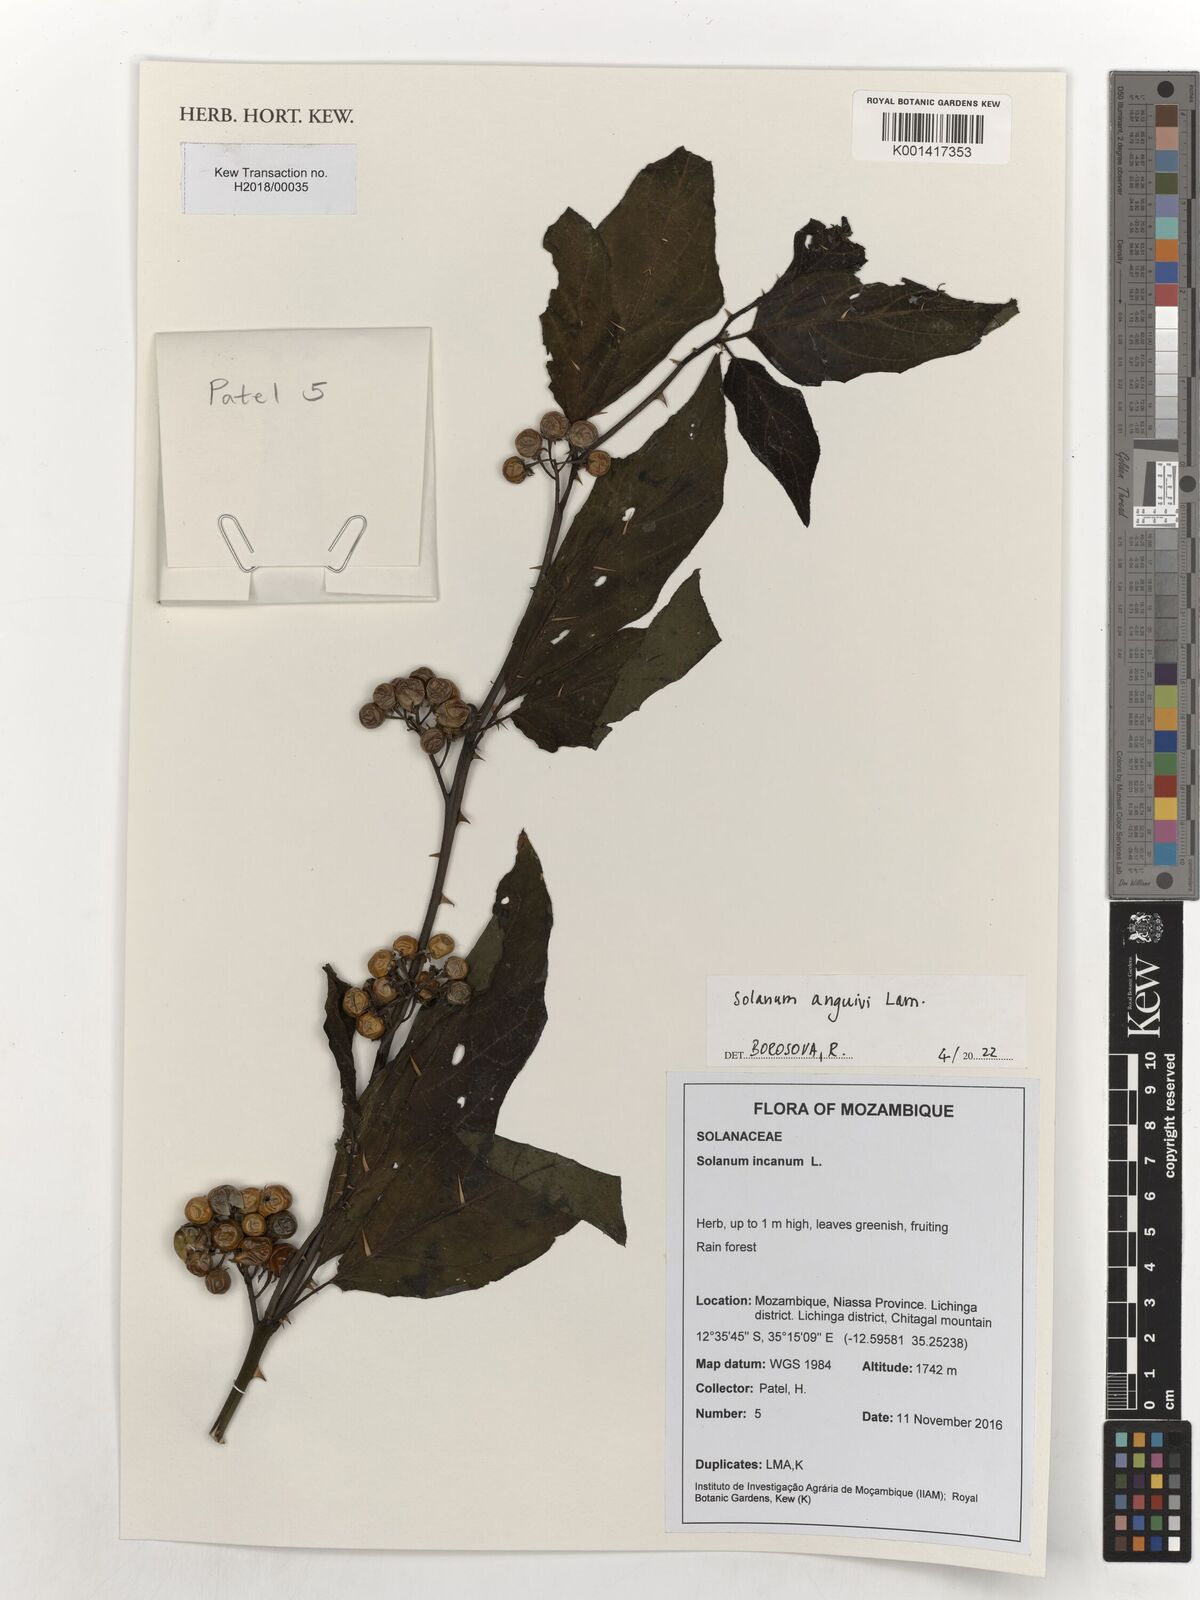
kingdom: Plantae
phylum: Tracheophyta
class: Magnoliopsida
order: Solanales
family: Solanaceae
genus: Solanum
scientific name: Solanum anguivi
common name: Forest bitterberry
